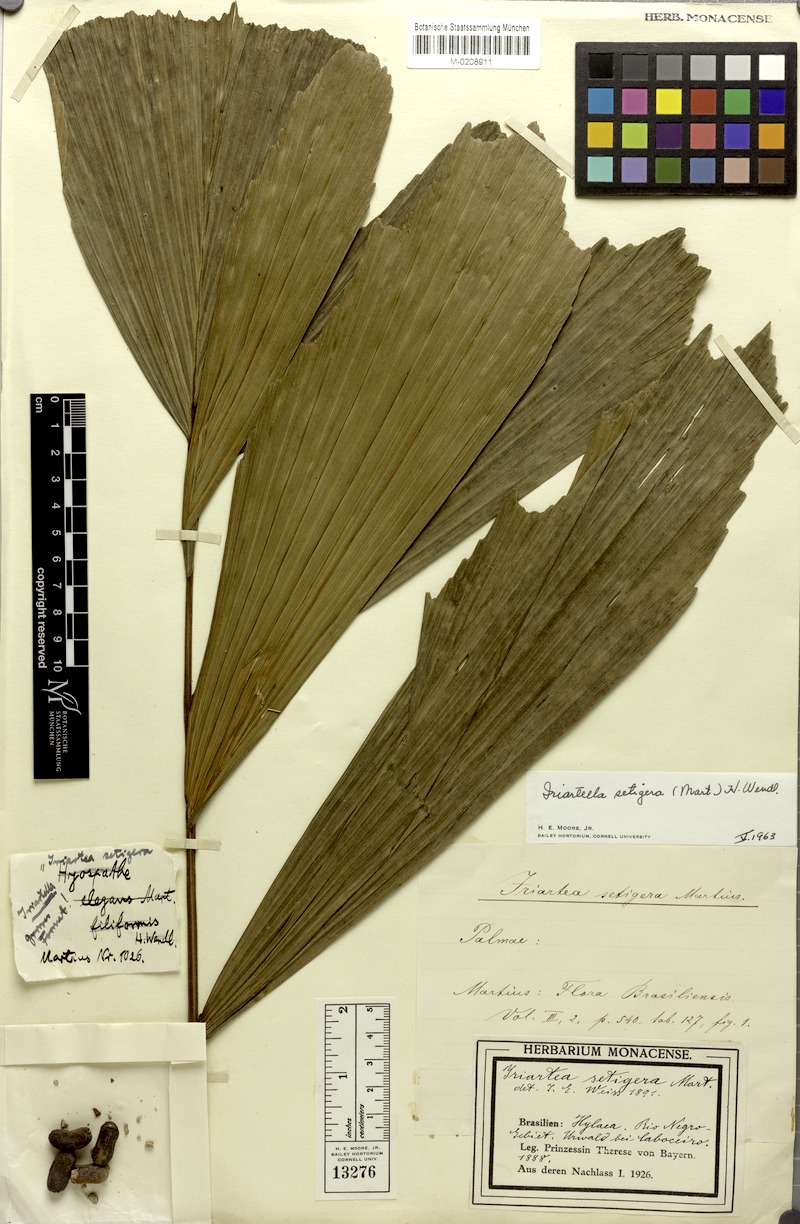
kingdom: Plantae
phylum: Tracheophyta
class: Liliopsida
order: Arecales
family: Arecaceae
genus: Iriartella
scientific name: Iriartella setigera
